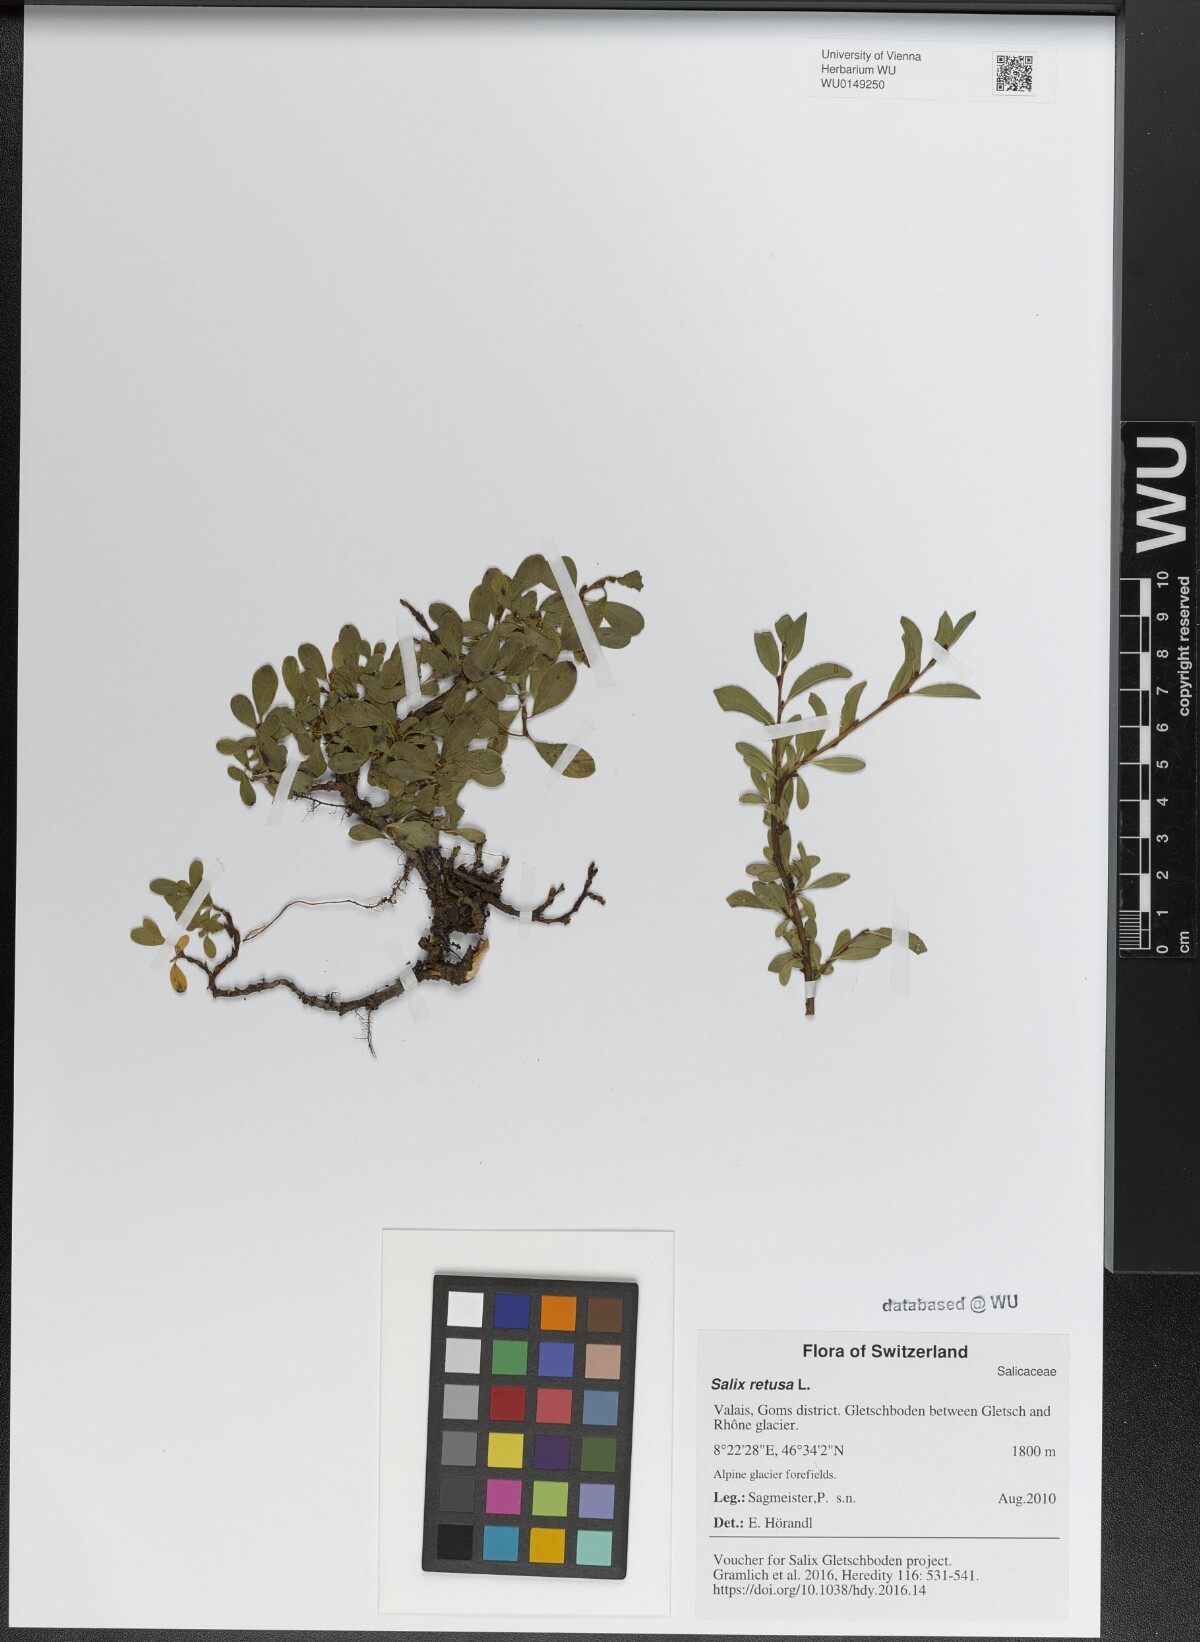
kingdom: Plantae
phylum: Tracheophyta
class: Magnoliopsida
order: Malpighiales
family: Salicaceae
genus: Salix
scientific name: Salix retusa
